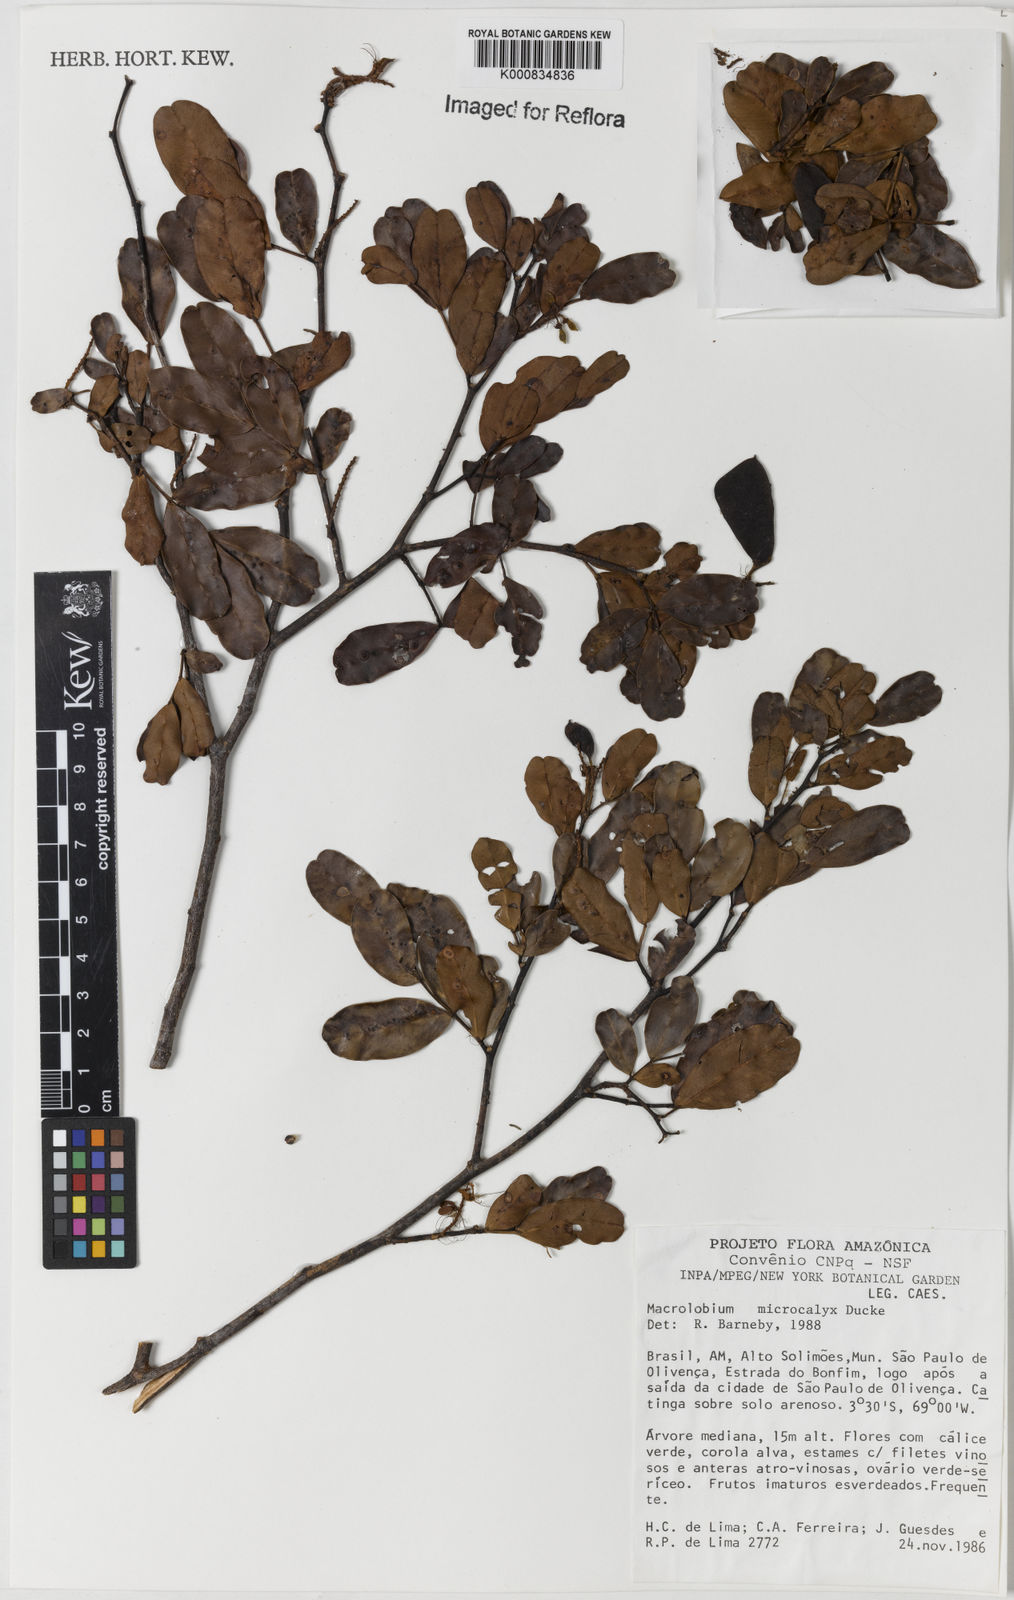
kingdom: Plantae
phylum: Tracheophyta
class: Magnoliopsida
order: Fabales
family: Fabaceae
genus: Macrolobium
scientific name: Macrolobium microcalyx
